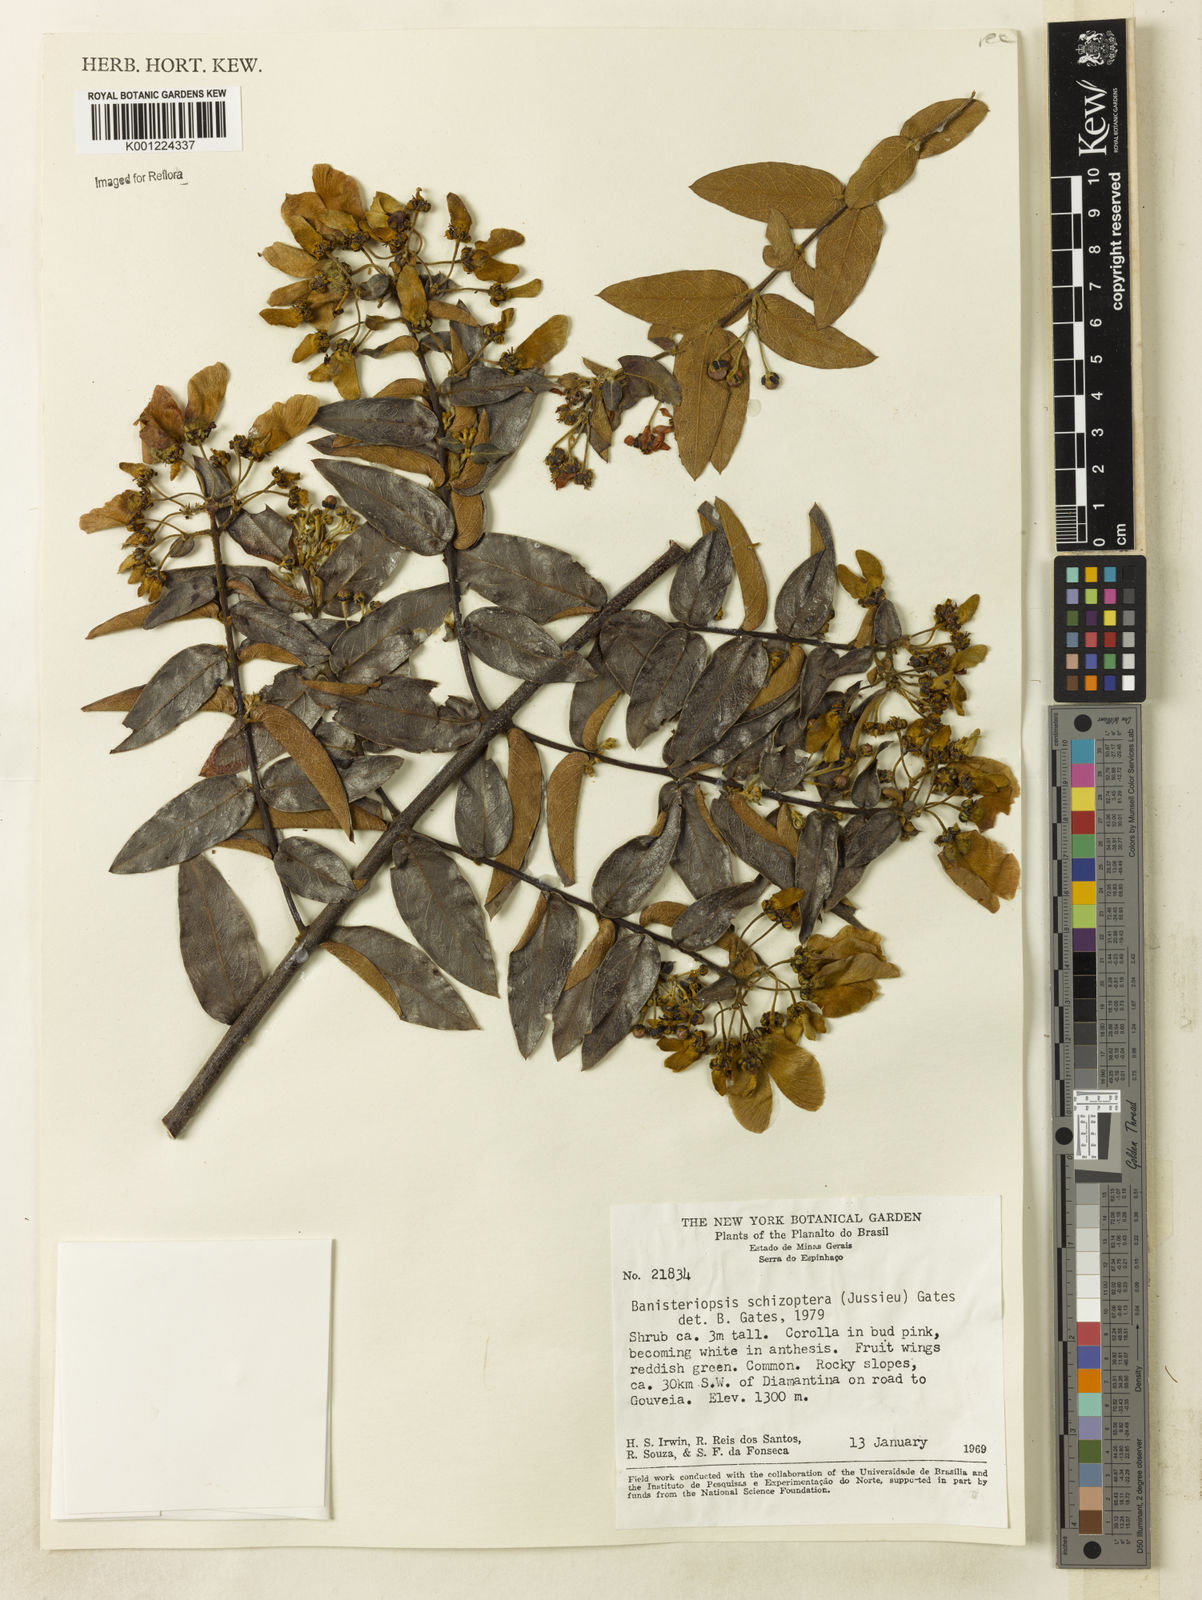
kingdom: Plantae
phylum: Tracheophyta
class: Magnoliopsida
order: Malpighiales
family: Malpighiaceae
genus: Banisteriopsis
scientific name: Banisteriopsis schizoptera
